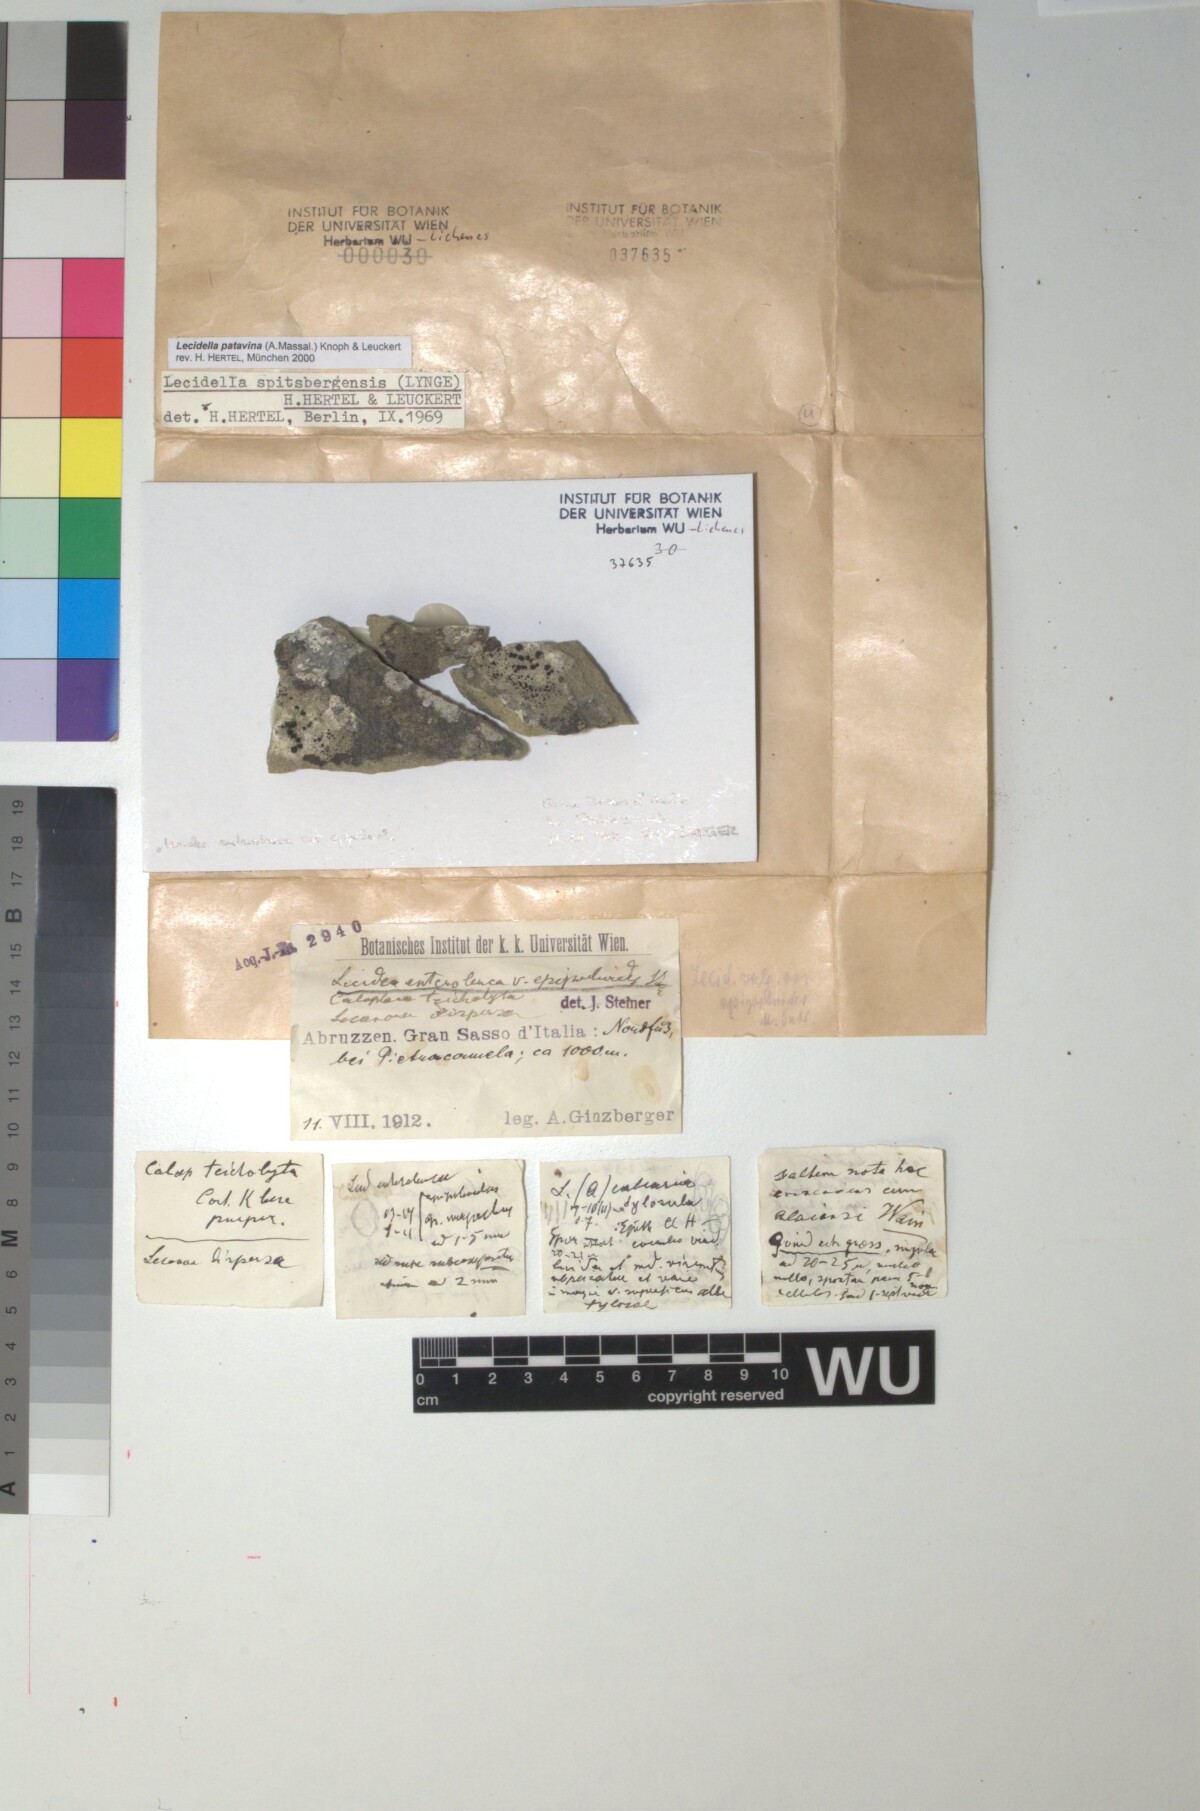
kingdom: Fungi
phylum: Ascomycota
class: Lecanoromycetes
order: Lecanorales
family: Lecanoraceae
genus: Lecidella
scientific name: Lecidella patavina
